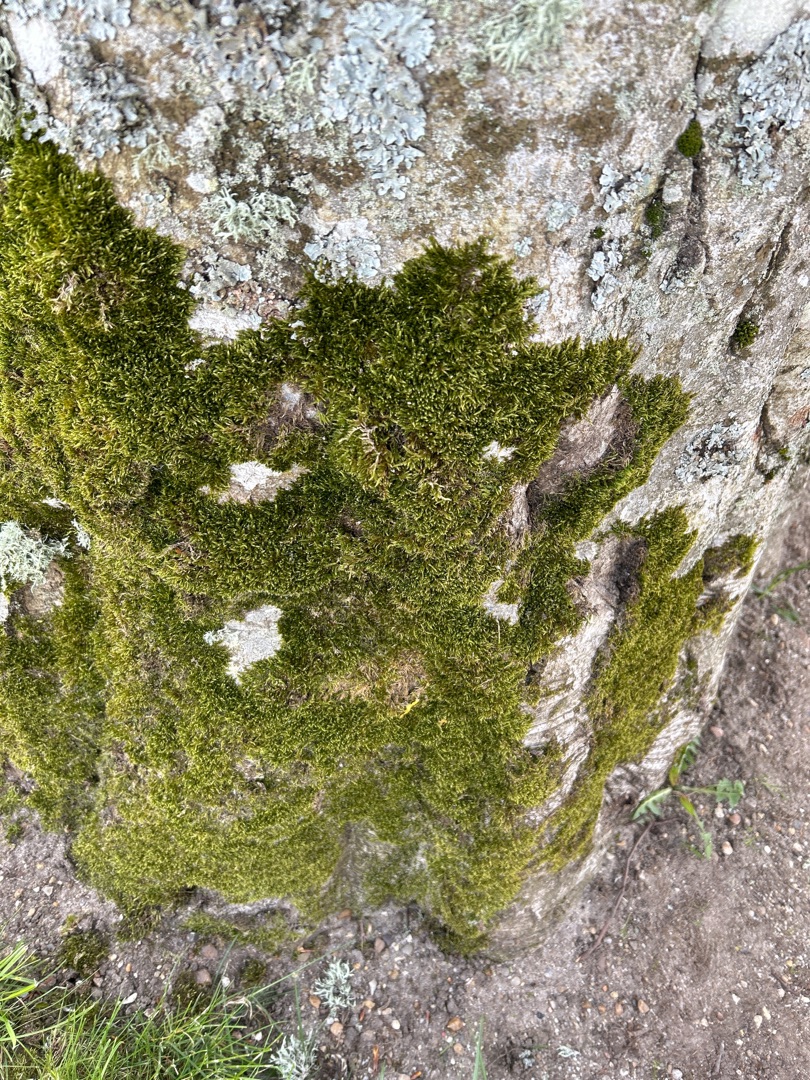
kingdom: Plantae
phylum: Bryophyta
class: Bryopsida
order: Hypnales
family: Hypnaceae
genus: Hypnum
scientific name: Hypnum
